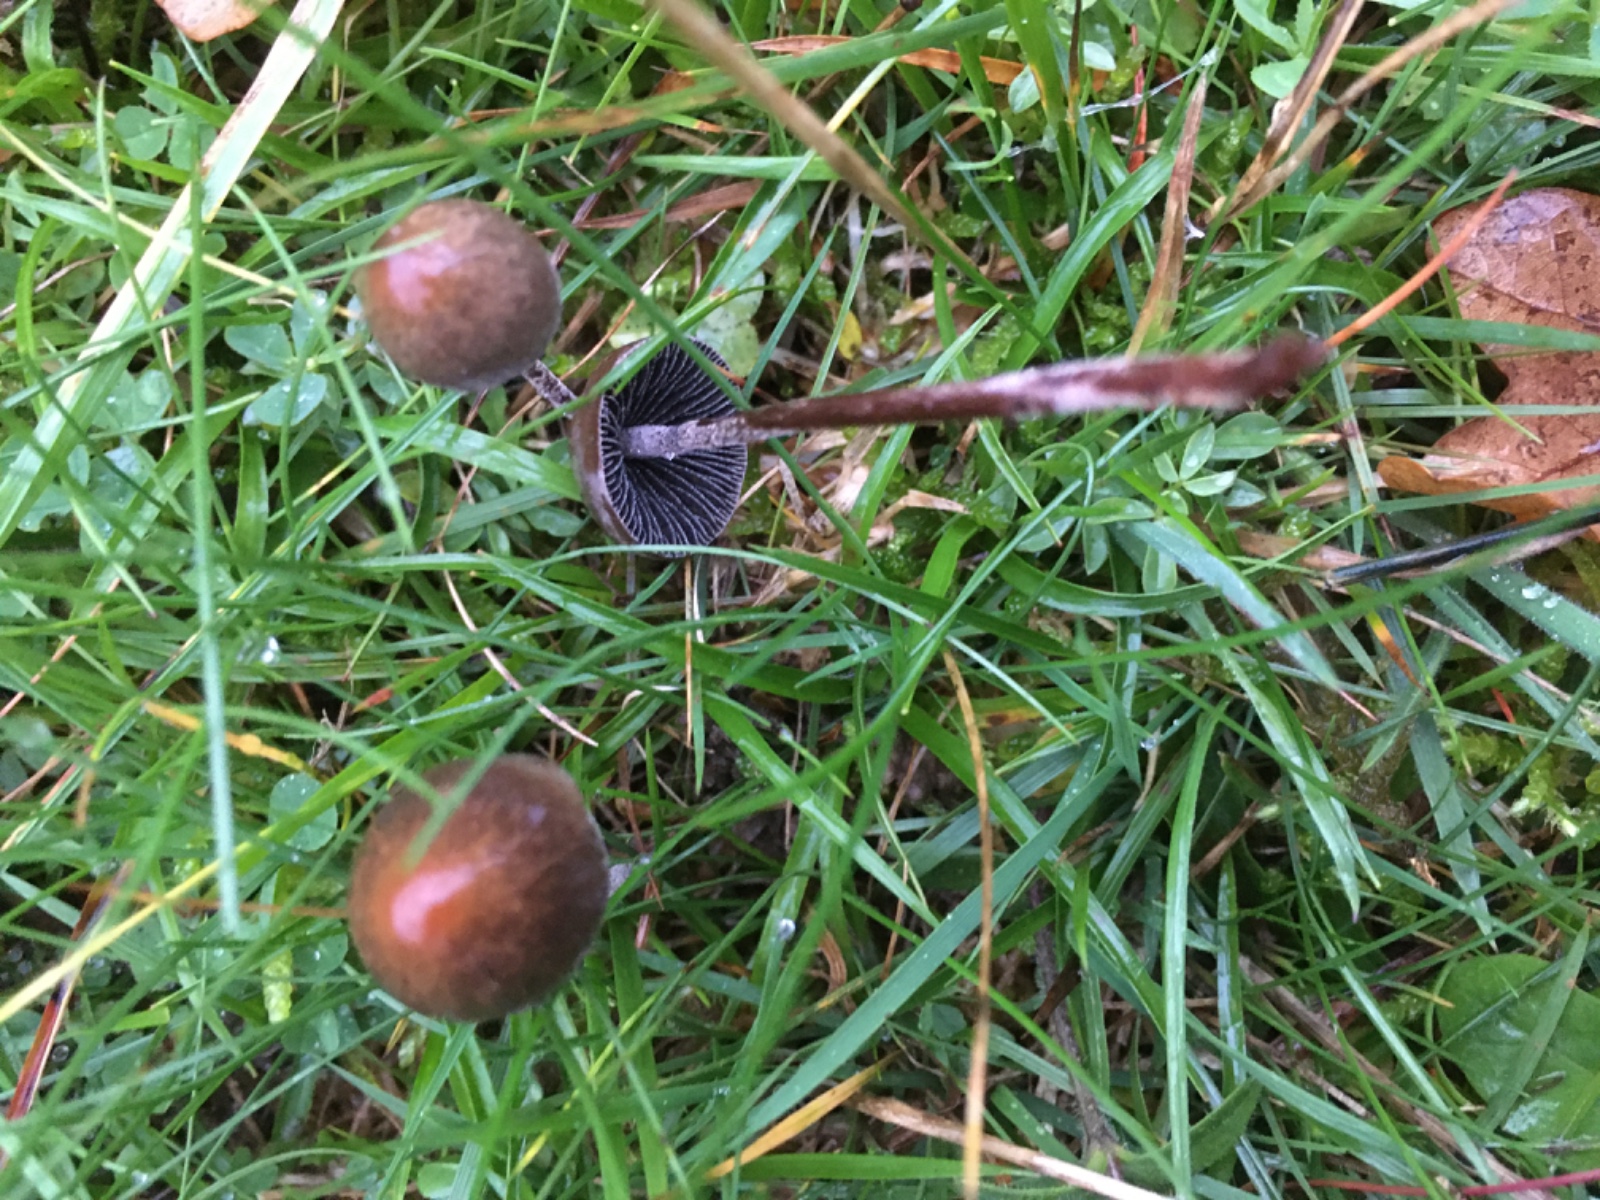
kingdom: Fungi
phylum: Basidiomycota
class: Agaricomycetes
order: Agaricales
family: Bolbitiaceae
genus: Panaeolus
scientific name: Panaeolus
